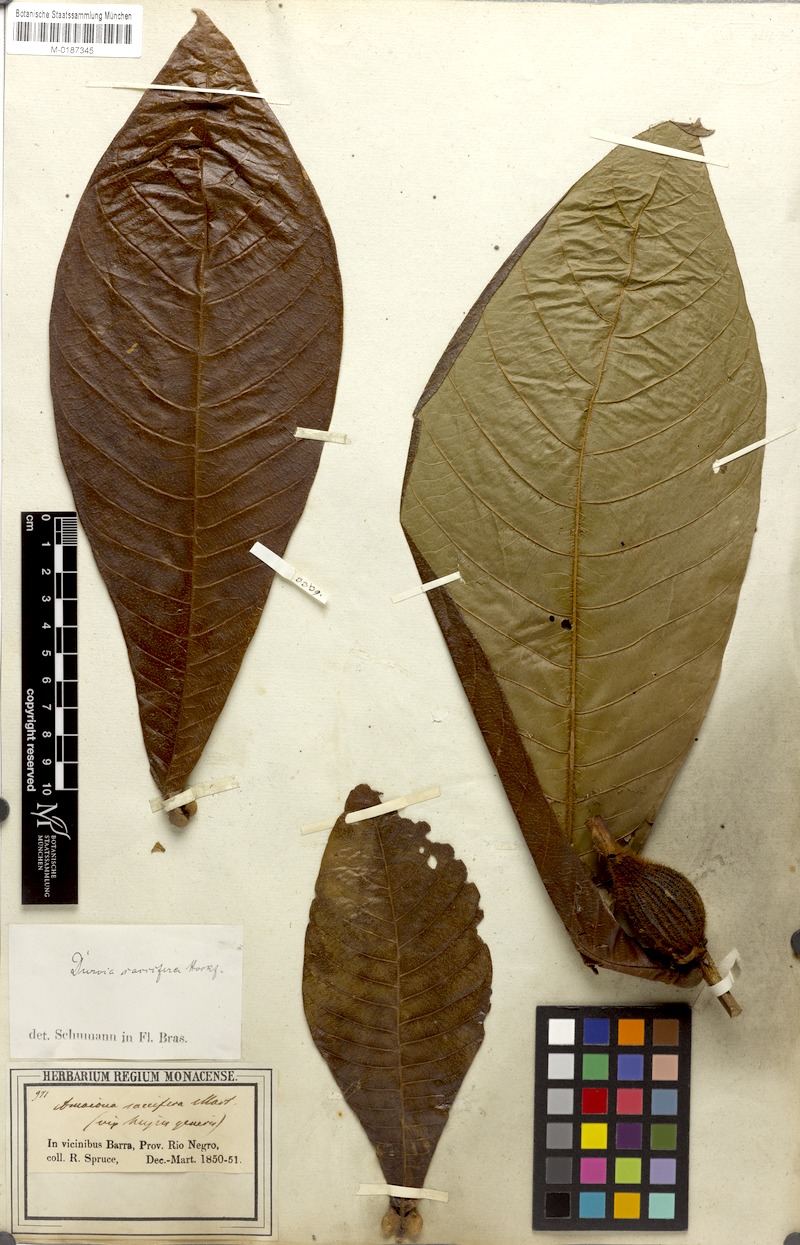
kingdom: Plantae
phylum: Tracheophyta
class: Magnoliopsida
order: Gentianales
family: Rubiaceae
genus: Duroia
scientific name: Duroia saccifera
